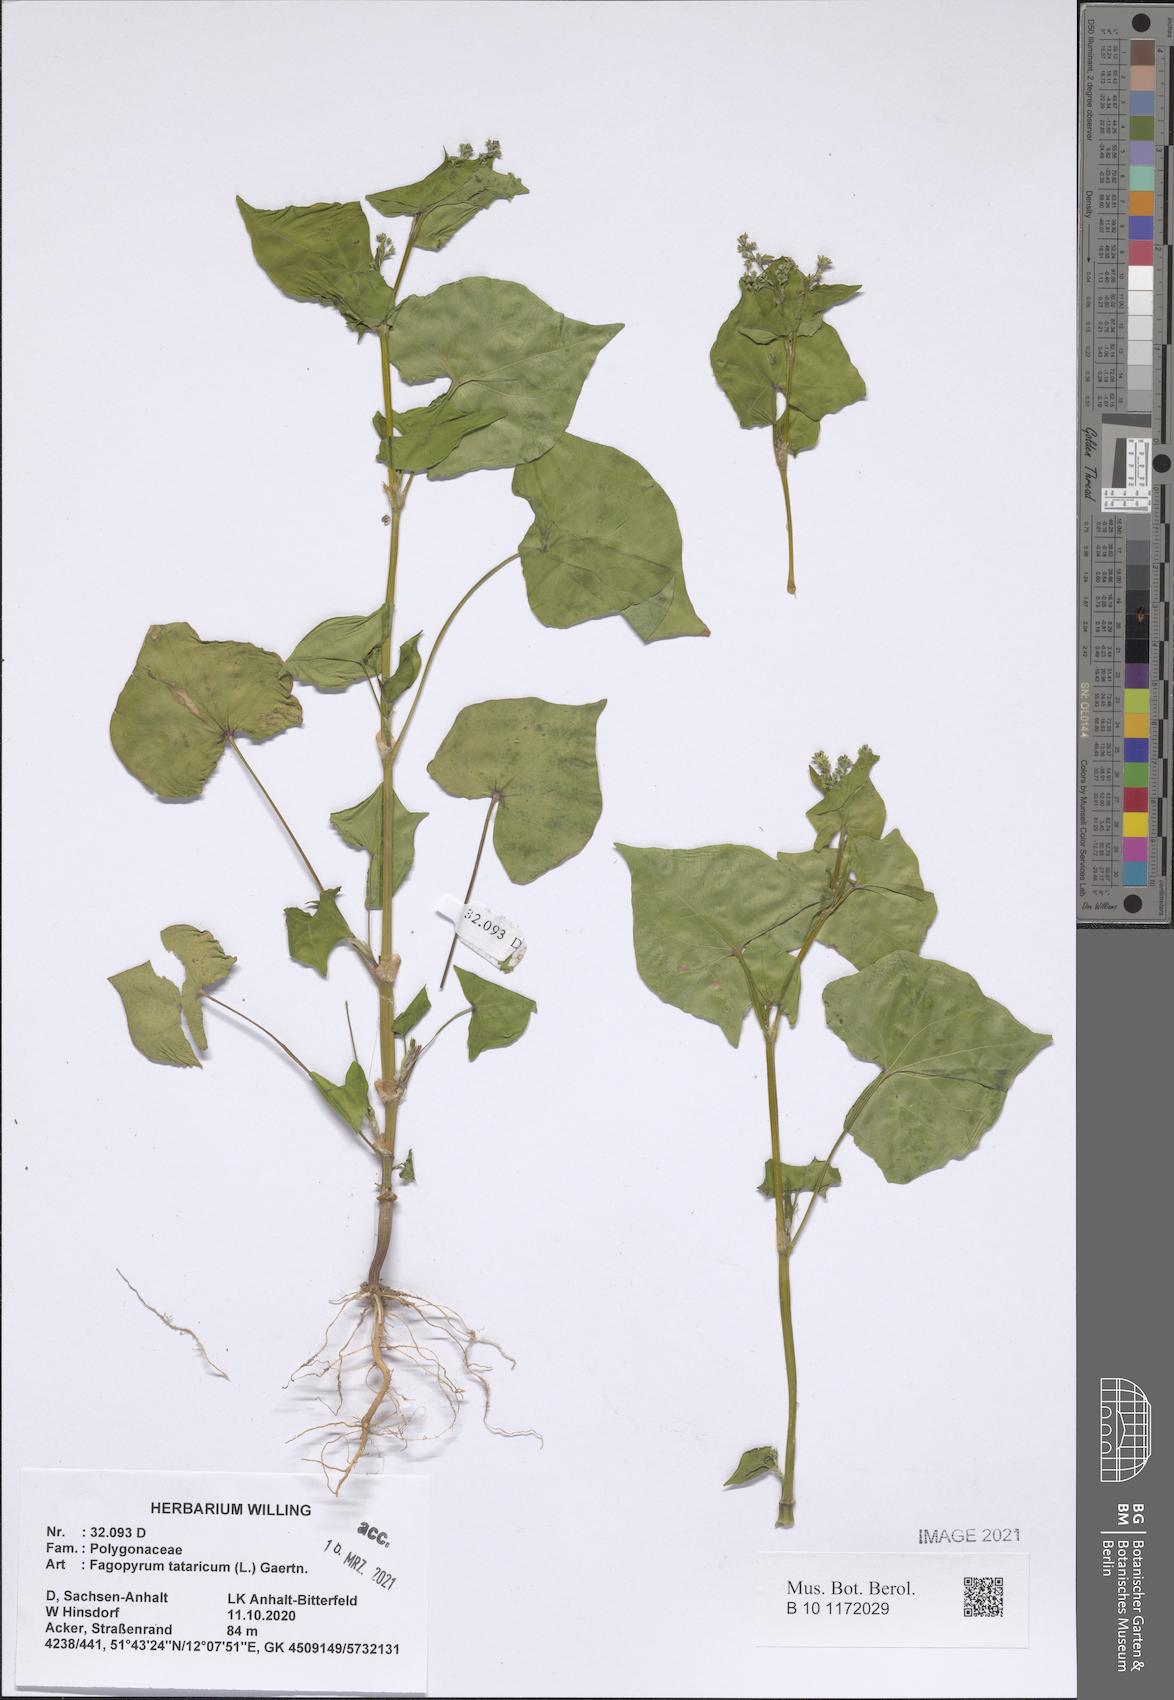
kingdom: Plantae
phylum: Tracheophyta
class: Magnoliopsida
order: Caryophyllales
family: Polygonaceae
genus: Fagopyrum
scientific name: Fagopyrum tataricum
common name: Green buckwheat
